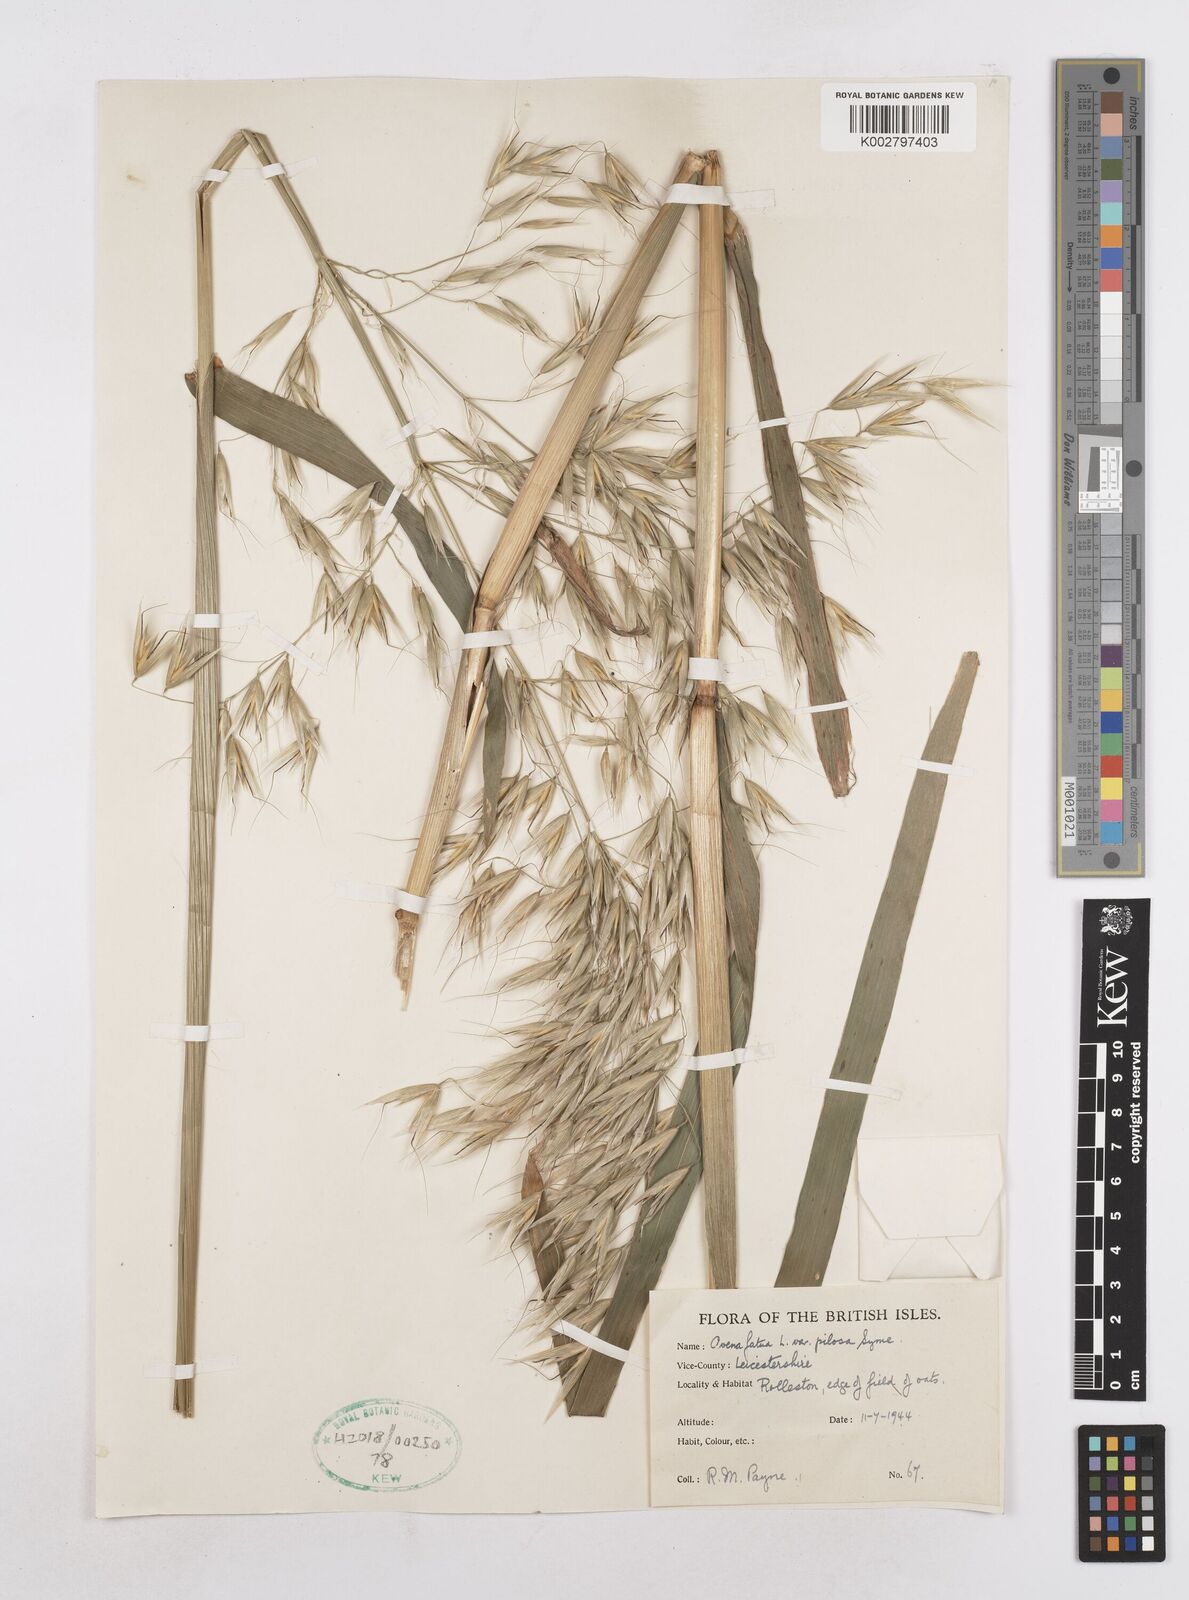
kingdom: Plantae
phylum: Tracheophyta
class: Liliopsida
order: Poales
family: Poaceae
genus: Avena
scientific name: Avena fatua
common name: Wild oat
